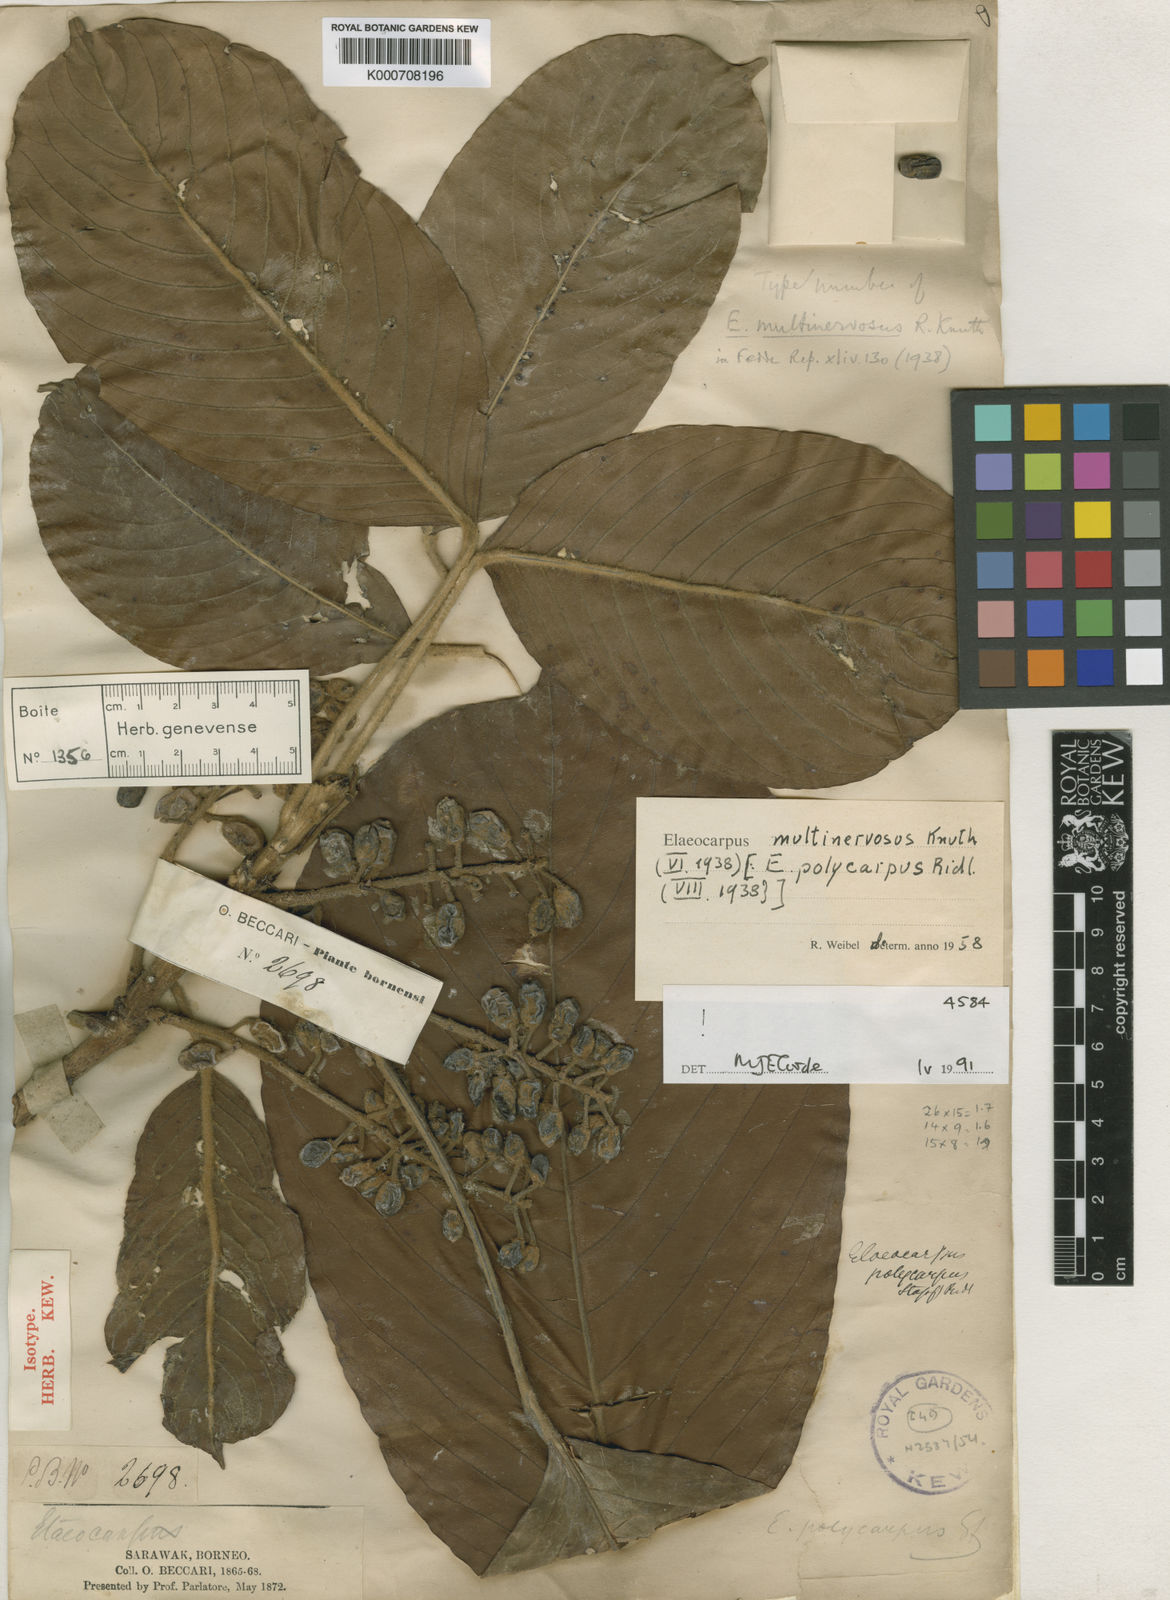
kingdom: Plantae
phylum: Tracheophyta
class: Magnoliopsida
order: Oxalidales
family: Elaeocarpaceae
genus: Elaeocarpus
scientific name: Elaeocarpus multinervosus
